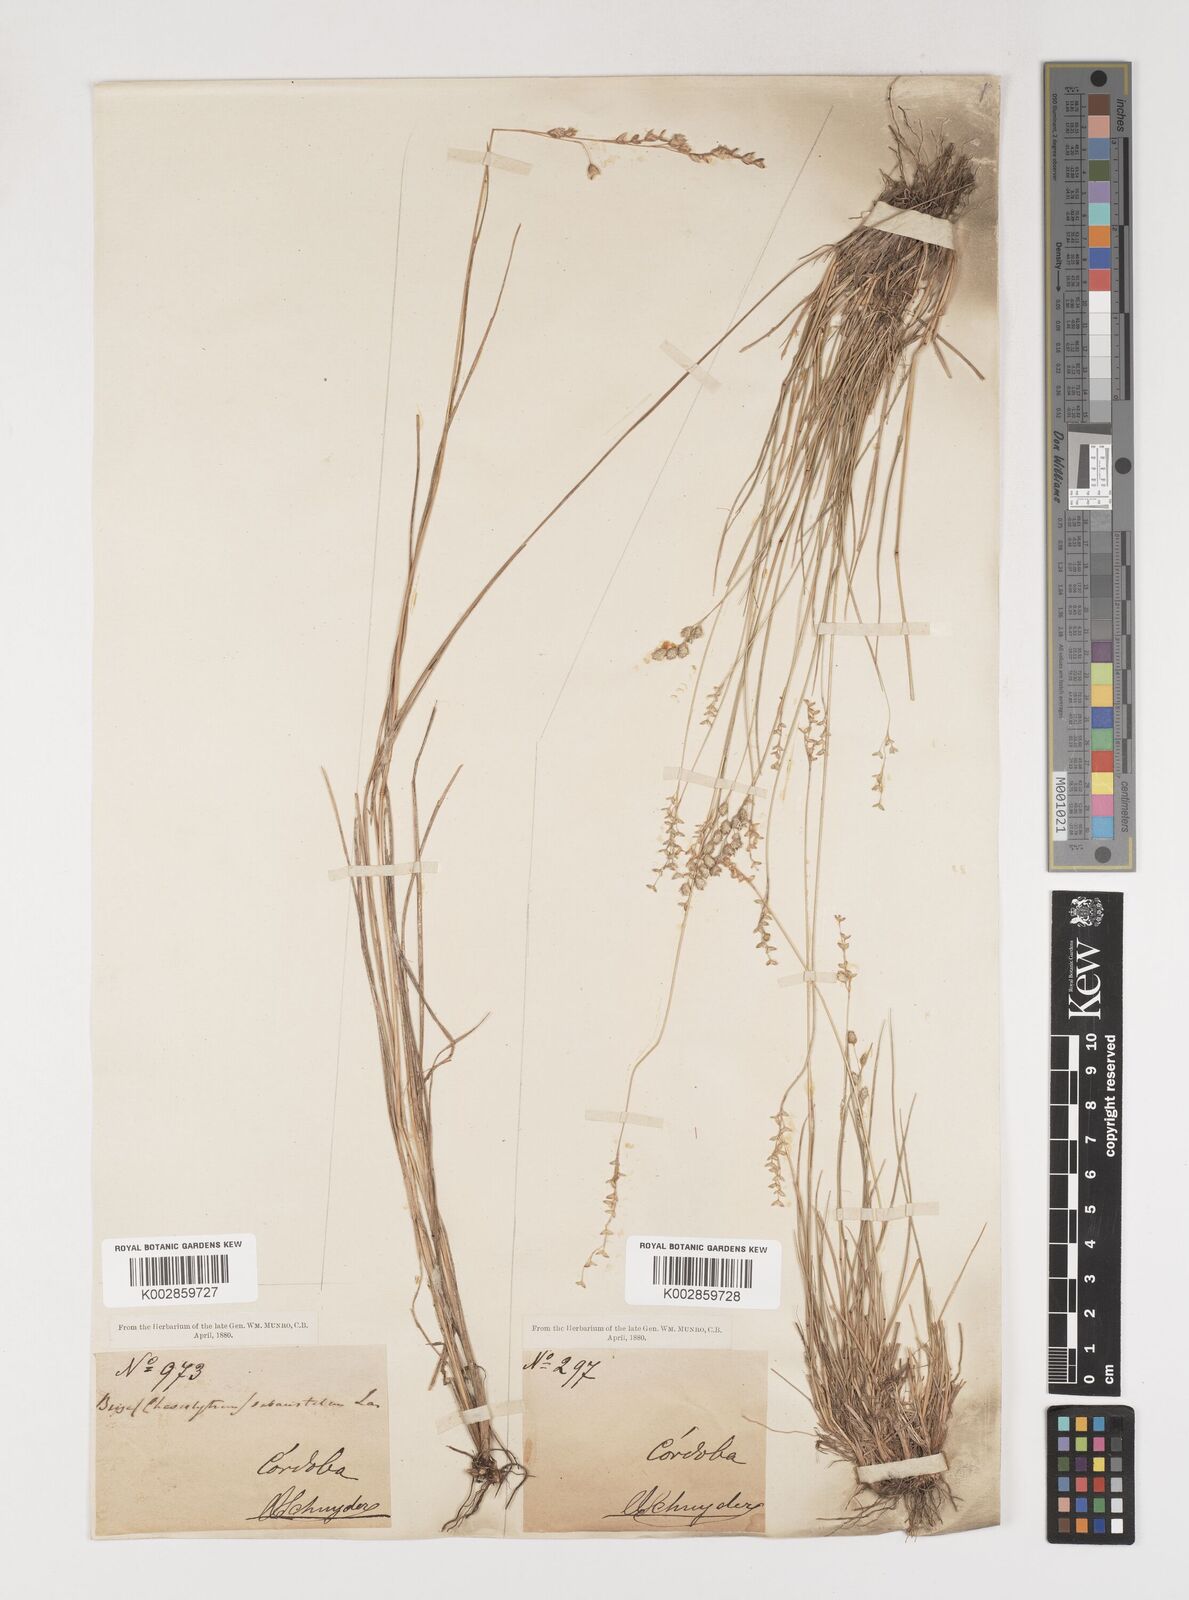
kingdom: Plantae
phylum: Tracheophyta
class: Liliopsida
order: Poales
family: Poaceae
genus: Chascolytrum
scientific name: Chascolytrum subaristatum
